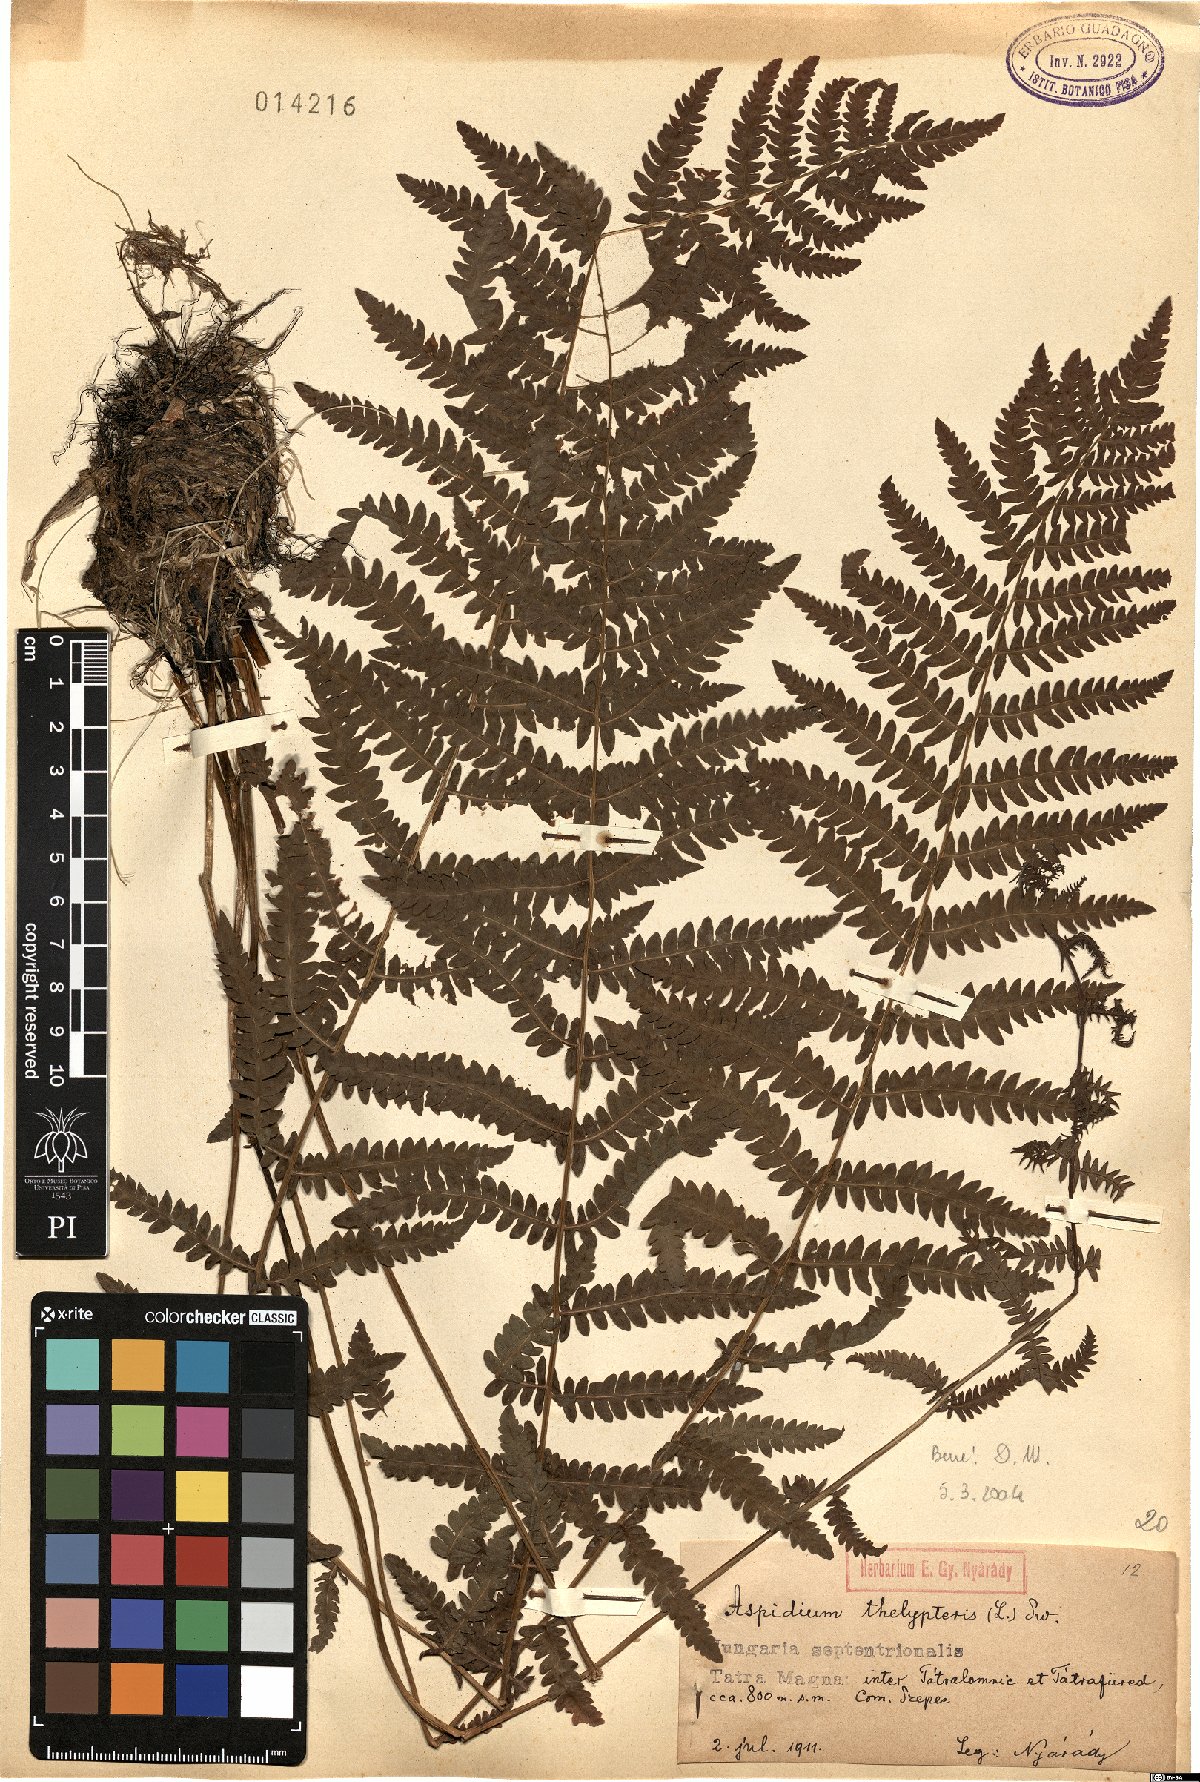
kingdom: Plantae
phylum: Tracheophyta
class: Polypodiopsida
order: Polypodiales
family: Thelypteridaceae
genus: Thelypteris
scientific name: Thelypteris palustris
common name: Marsh fern
